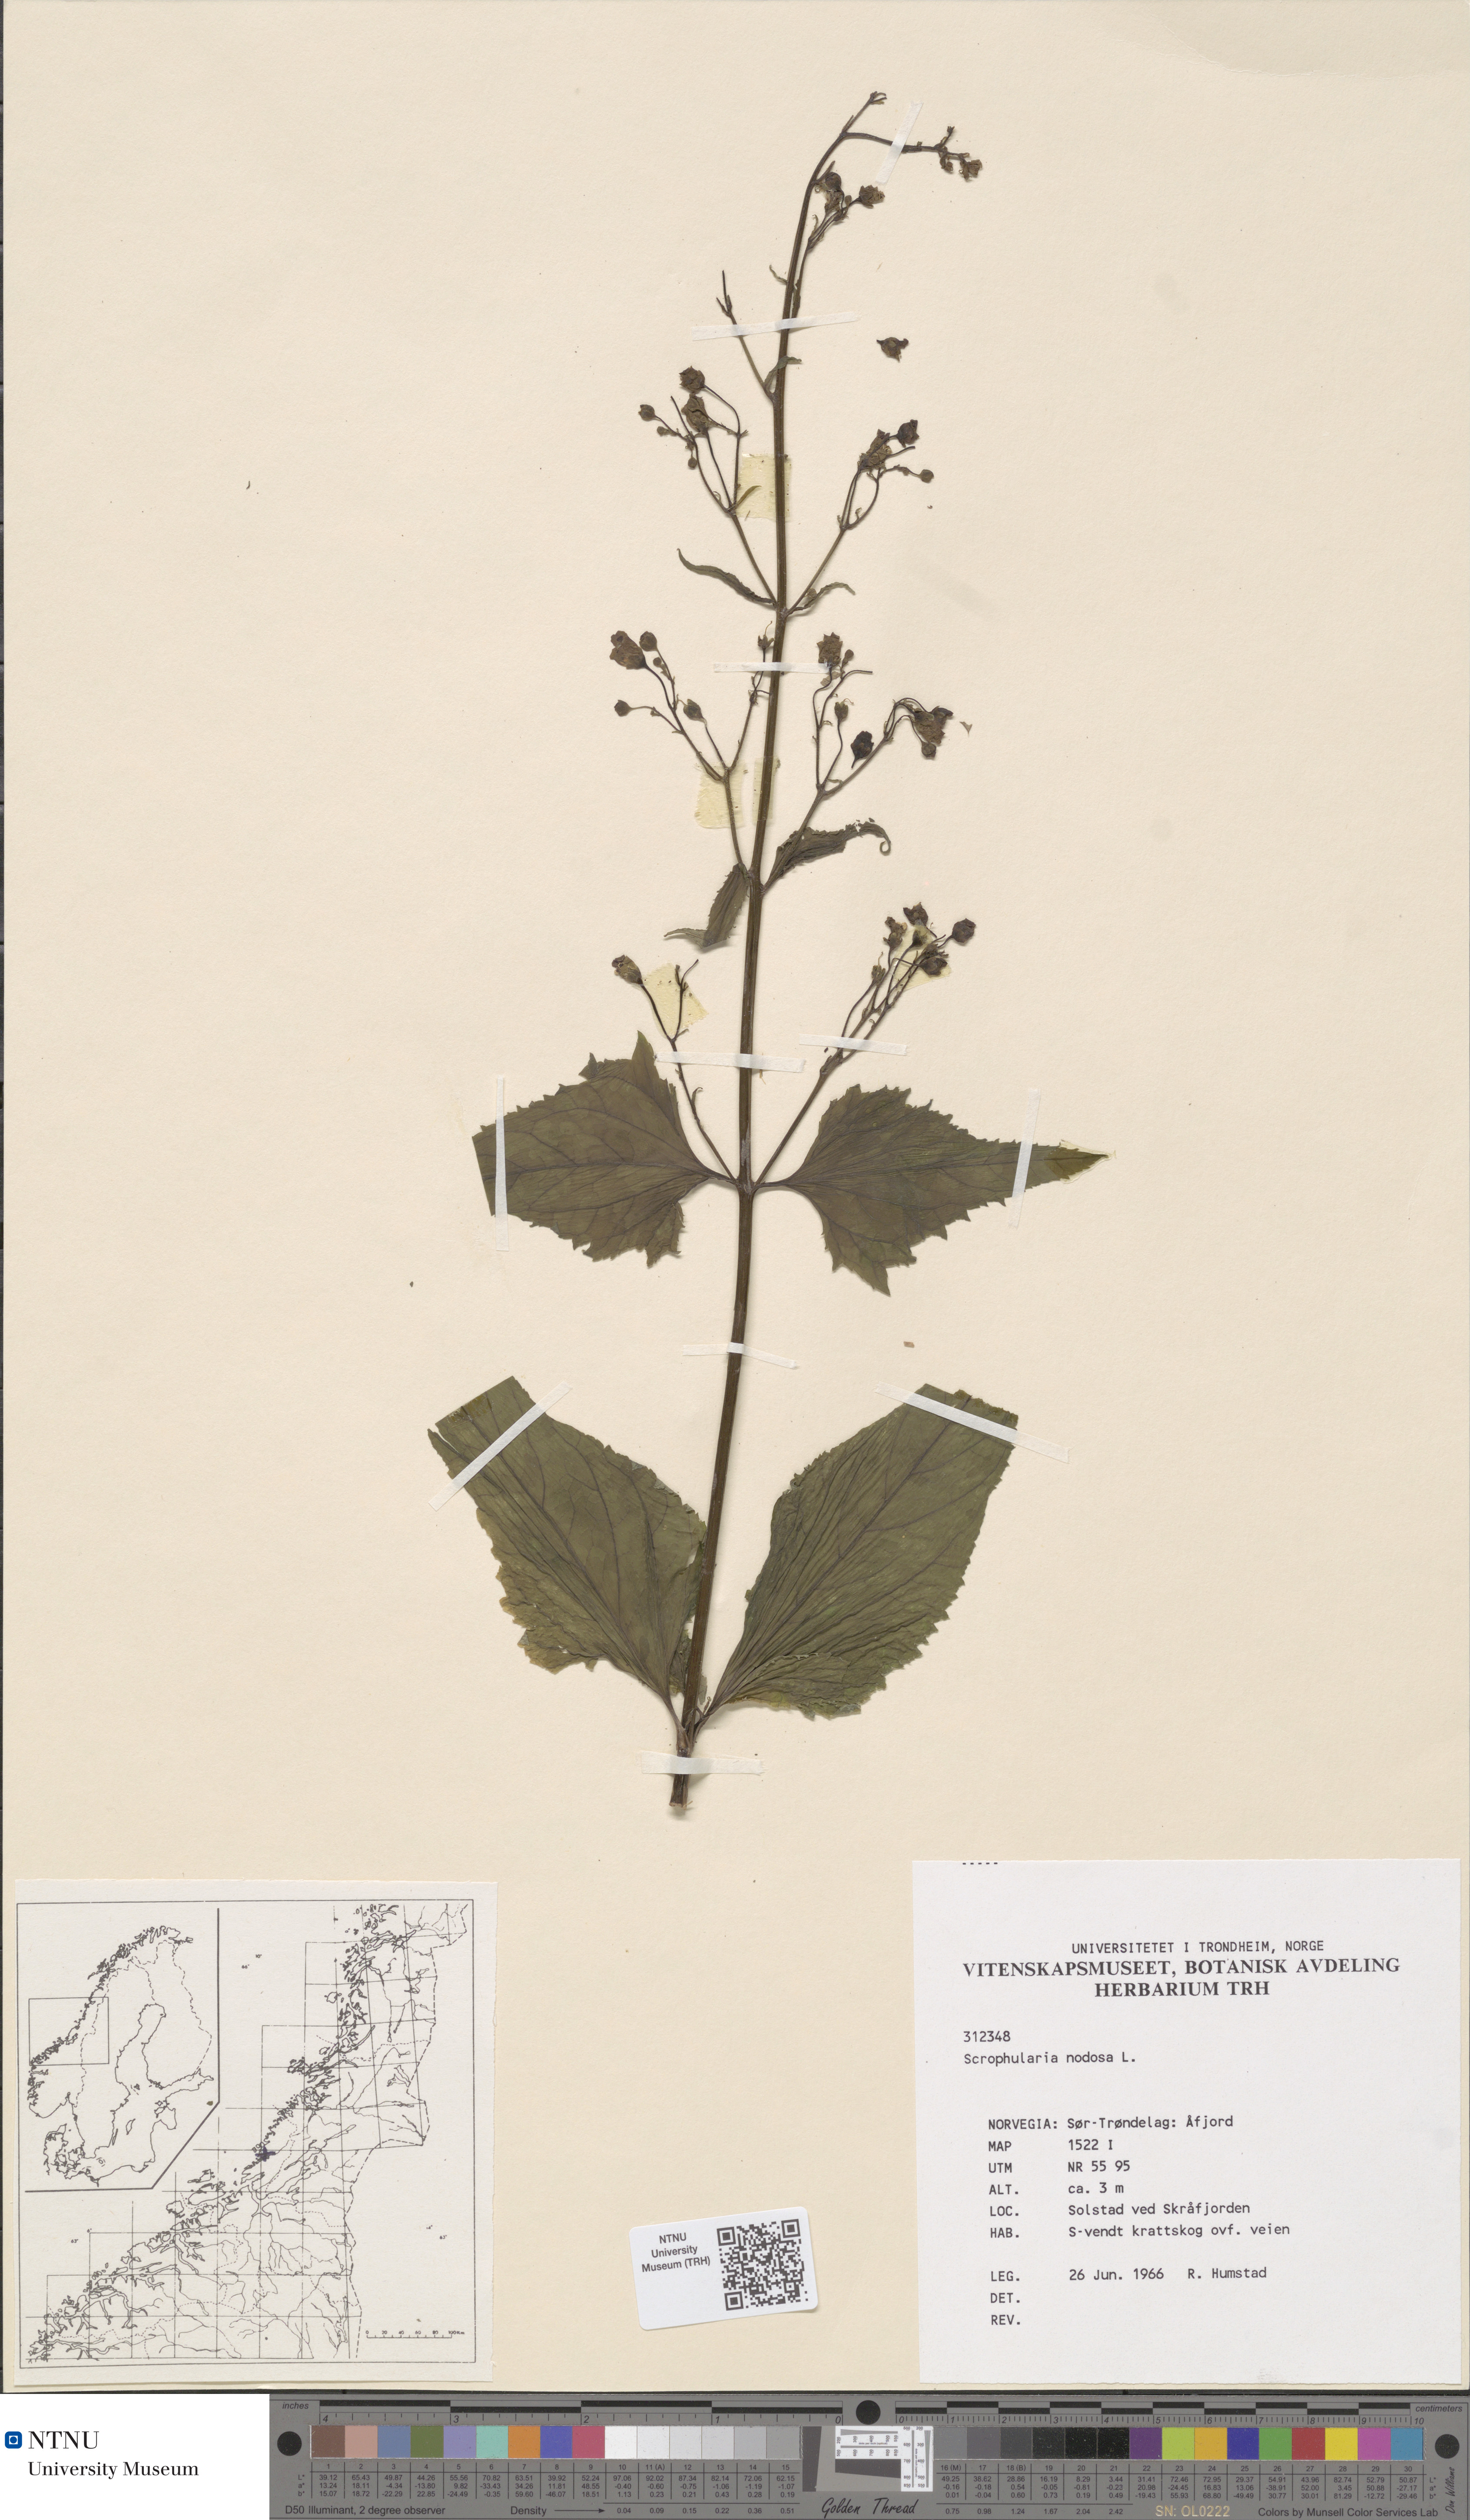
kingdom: Plantae
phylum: Tracheophyta
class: Magnoliopsida
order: Lamiales
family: Scrophulariaceae
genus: Scrophularia
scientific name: Scrophularia nodosa
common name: Common figwort
